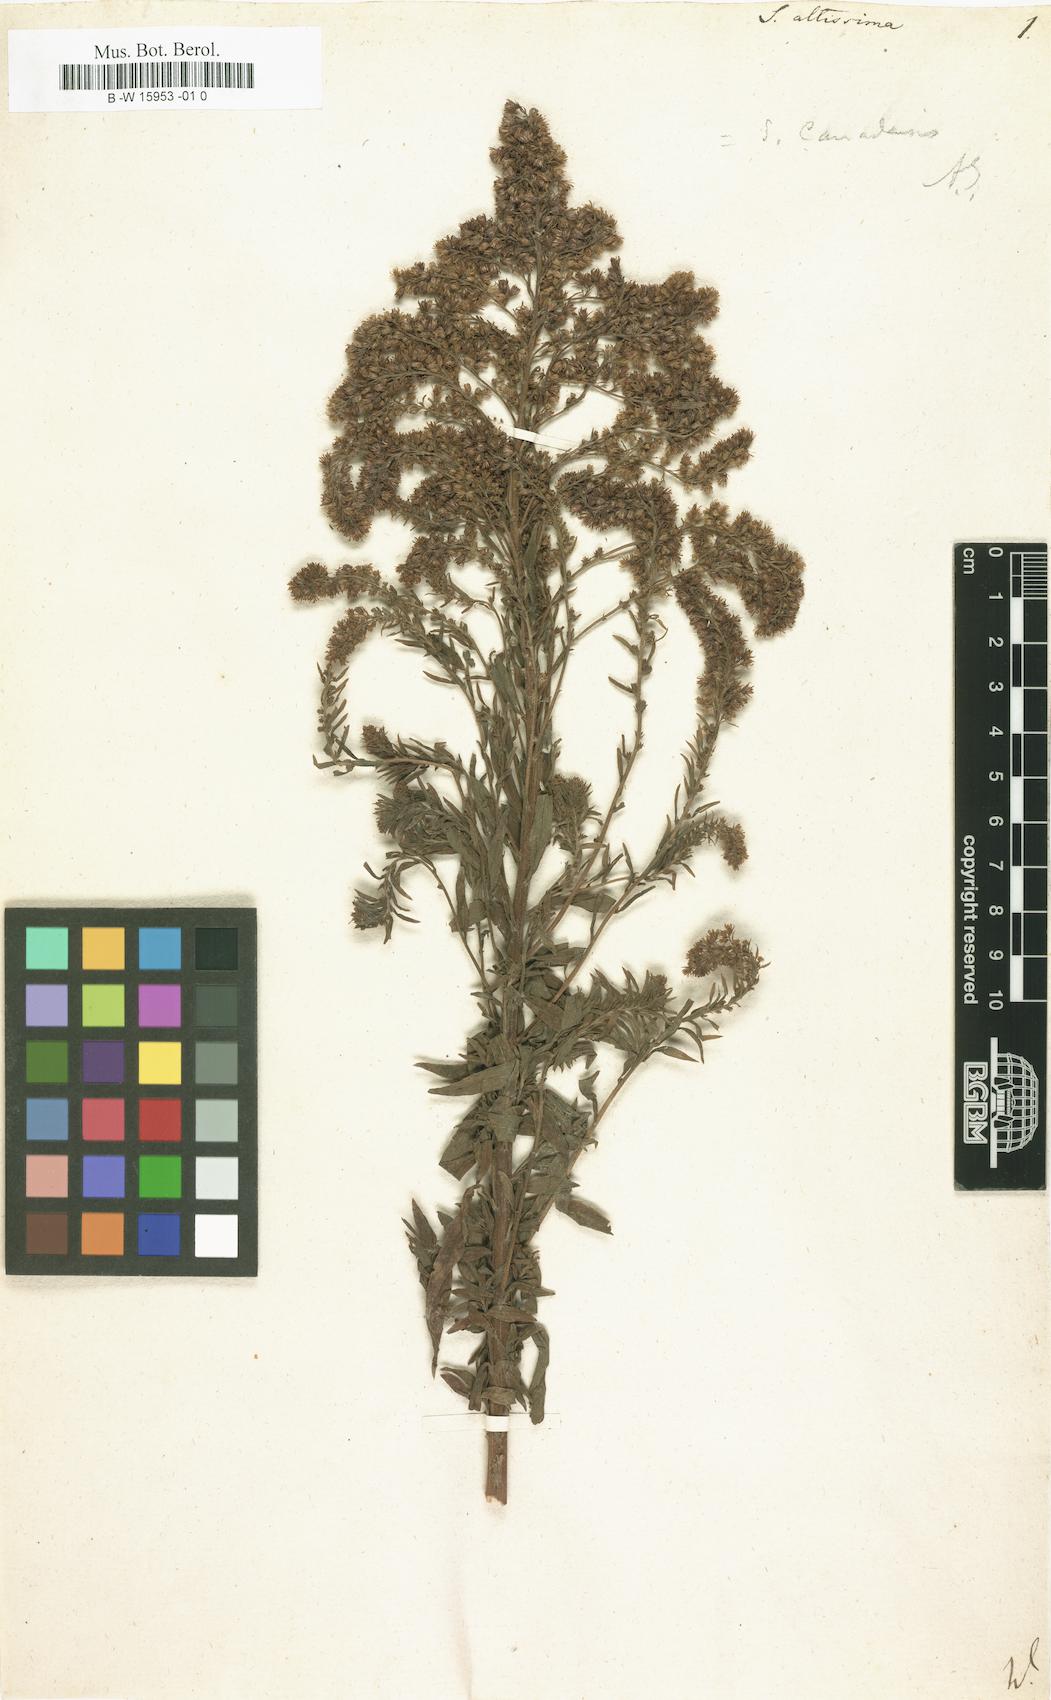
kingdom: Plantae
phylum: Tracheophyta
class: Magnoliopsida
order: Asterales
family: Asteraceae
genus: Solidago
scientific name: Solidago altissima
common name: Late goldenrod
